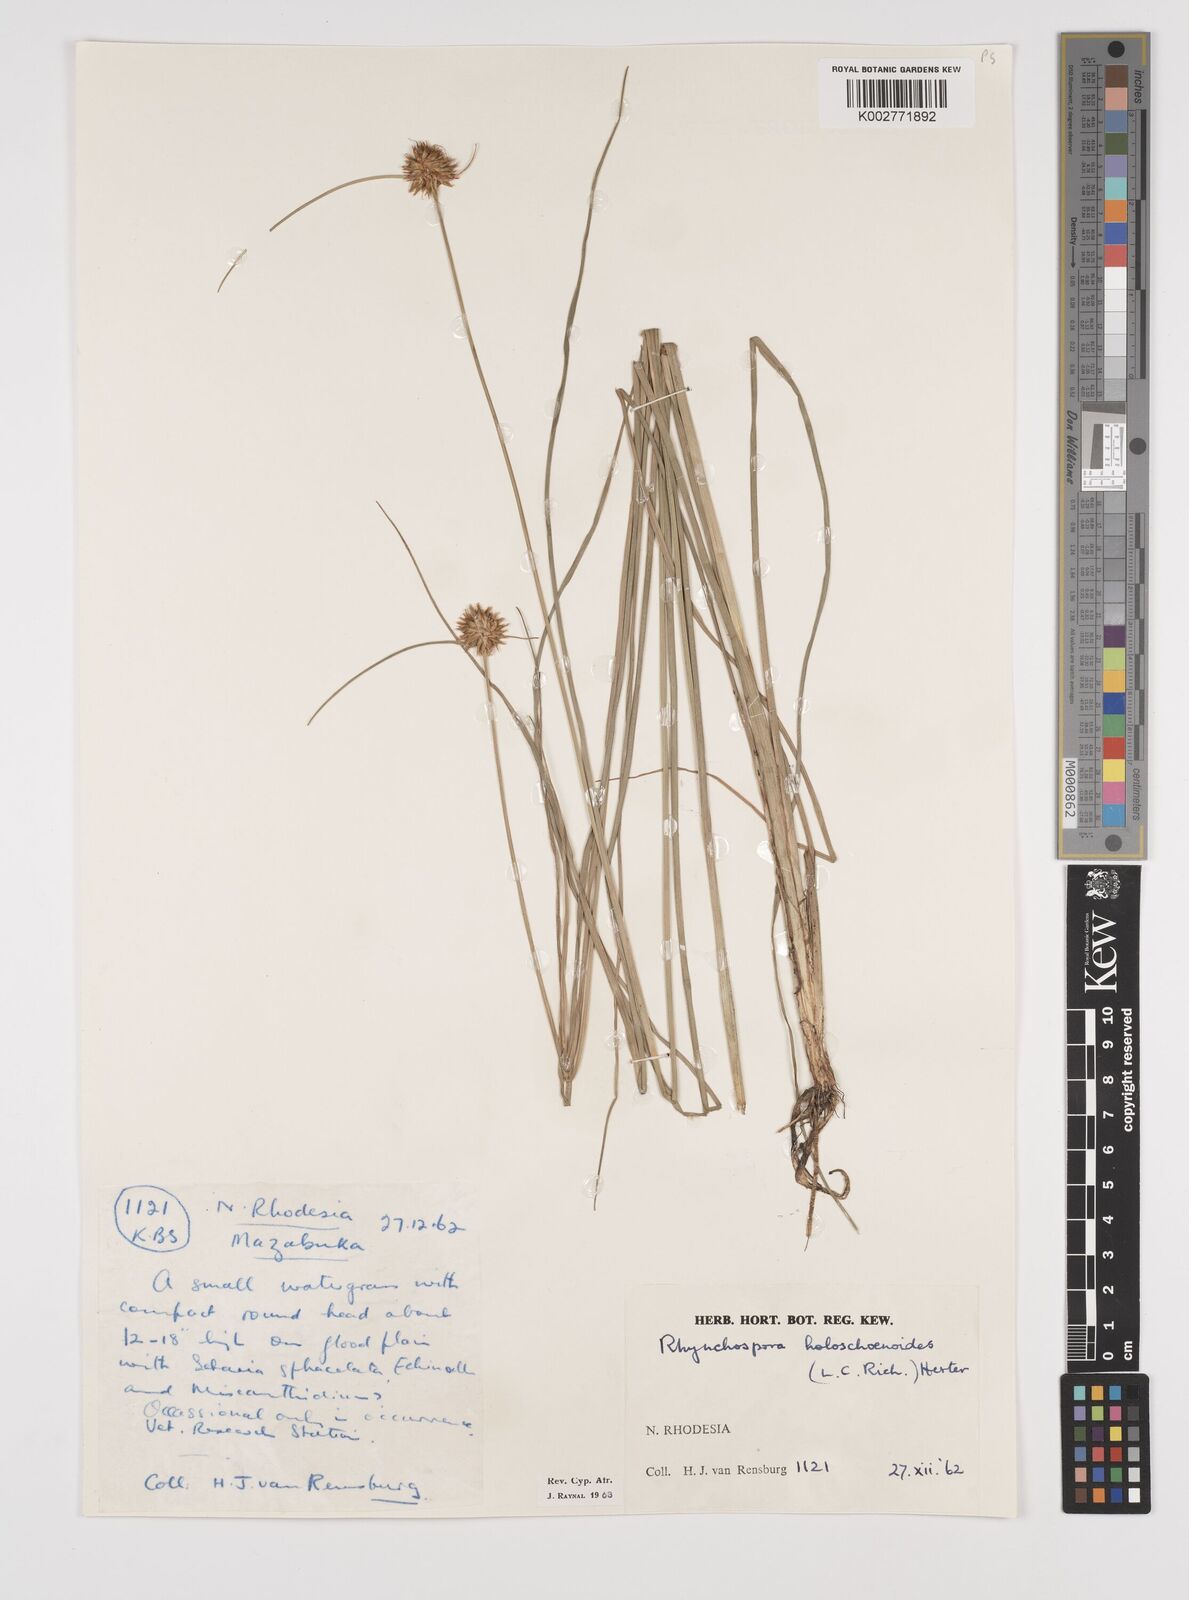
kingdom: Plantae
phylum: Tracheophyta
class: Liliopsida
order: Poales
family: Cyperaceae
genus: Rhynchospora
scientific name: Rhynchospora holoschoenoides
